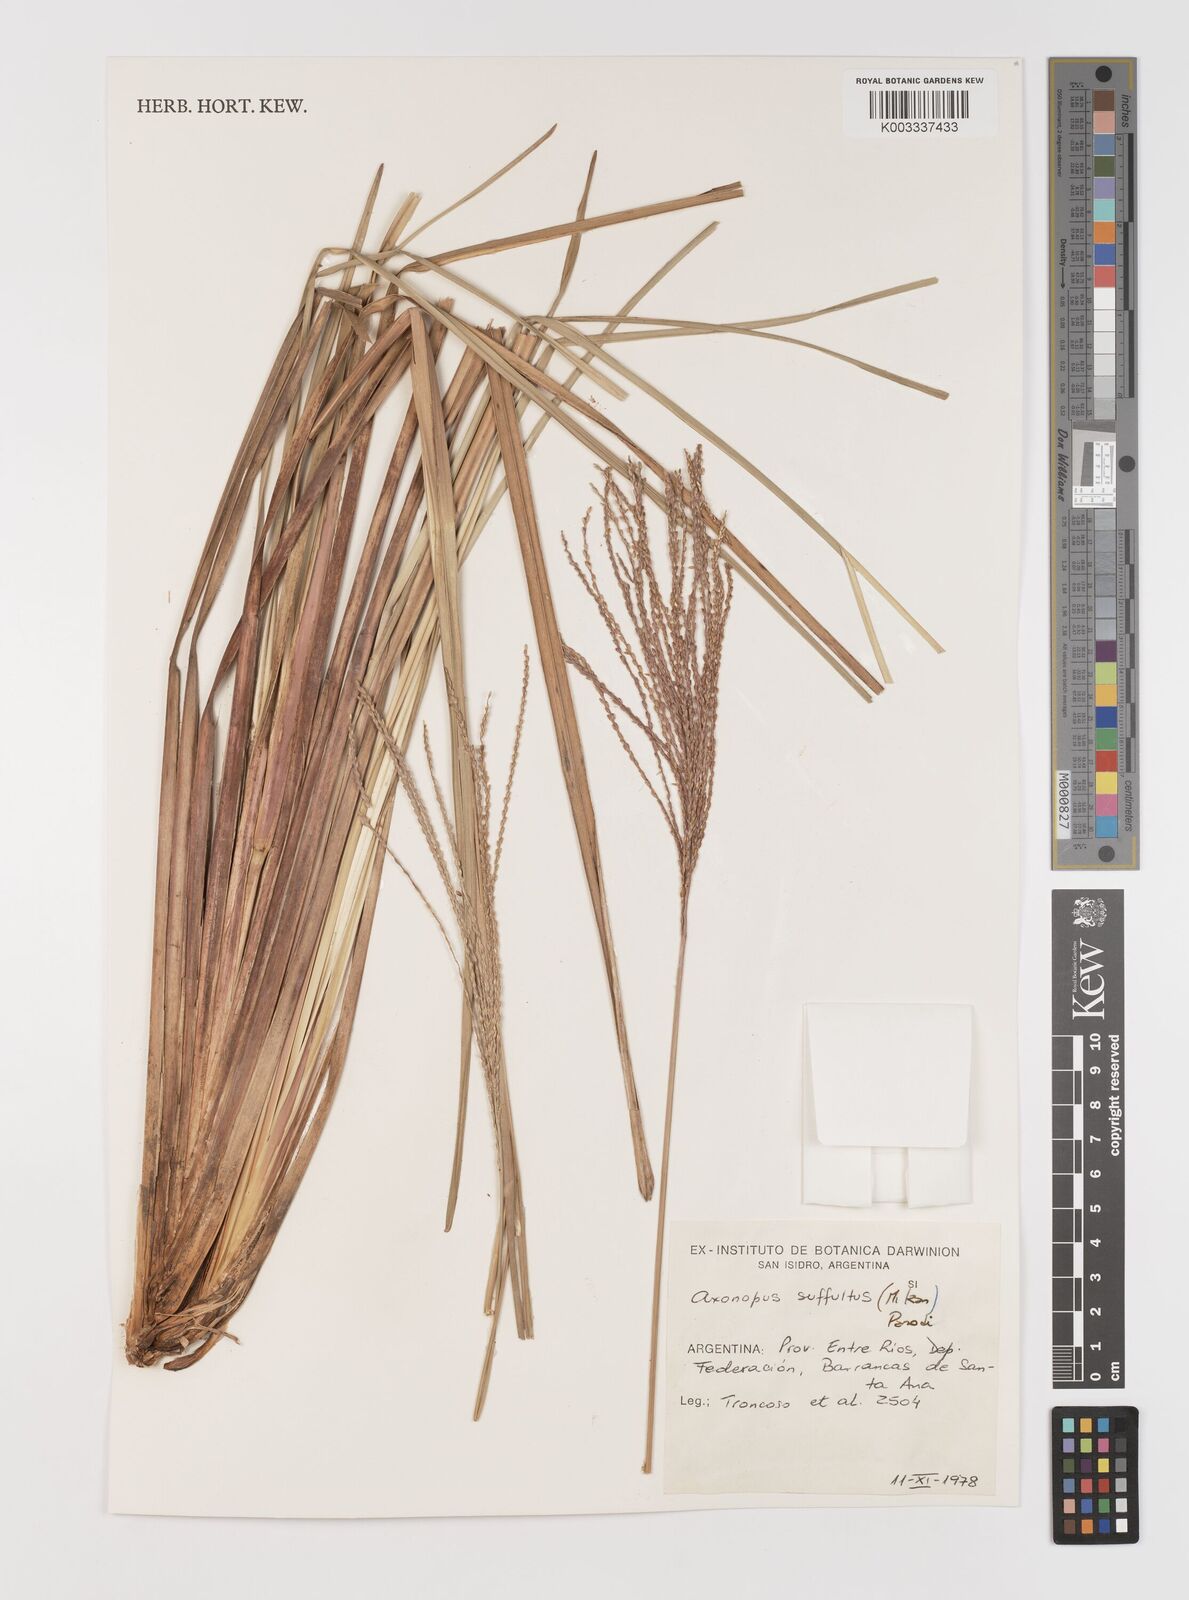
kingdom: Plantae
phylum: Tracheophyta
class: Liliopsida
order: Poales
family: Poaceae
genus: Axonopus
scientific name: Axonopus suffultus
